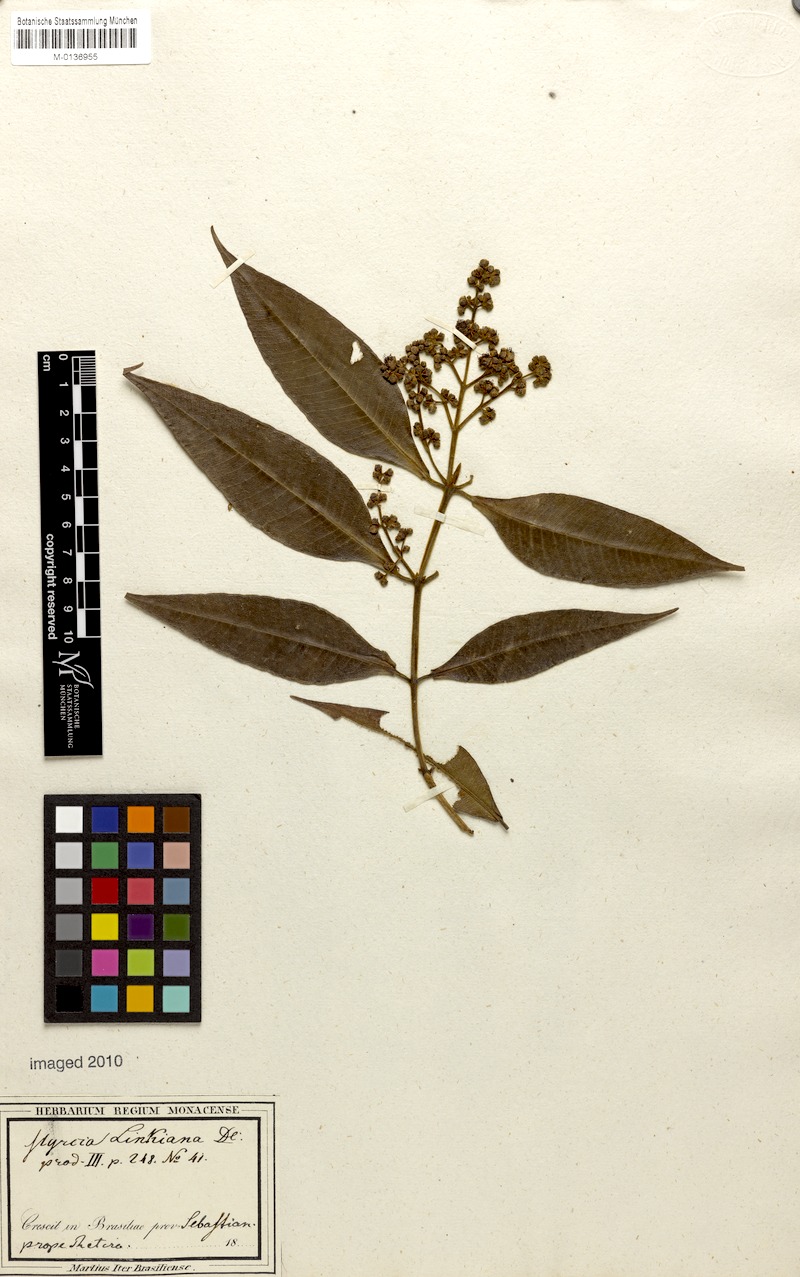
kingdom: Plantae
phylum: Tracheophyta
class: Magnoliopsida
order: Myrtales
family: Myrtaceae
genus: Myrcia
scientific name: Myrcia cordiifolia
